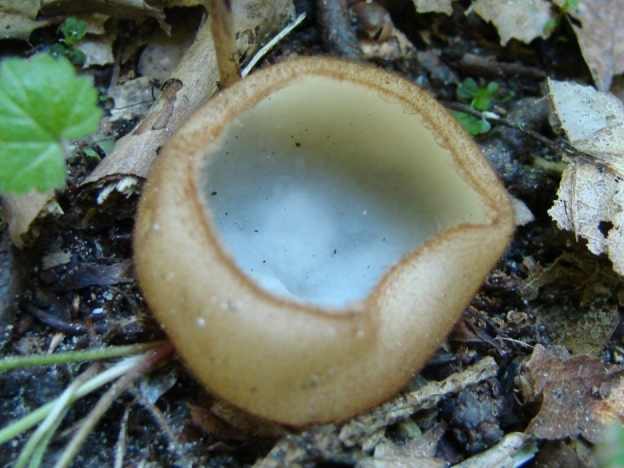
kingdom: Fungi
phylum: Ascomycota
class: Pezizomycetes
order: Pezizales
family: Pyronemataceae
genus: Humaria
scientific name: Humaria hemisphaerica
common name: halvkugleformet børstebæger
